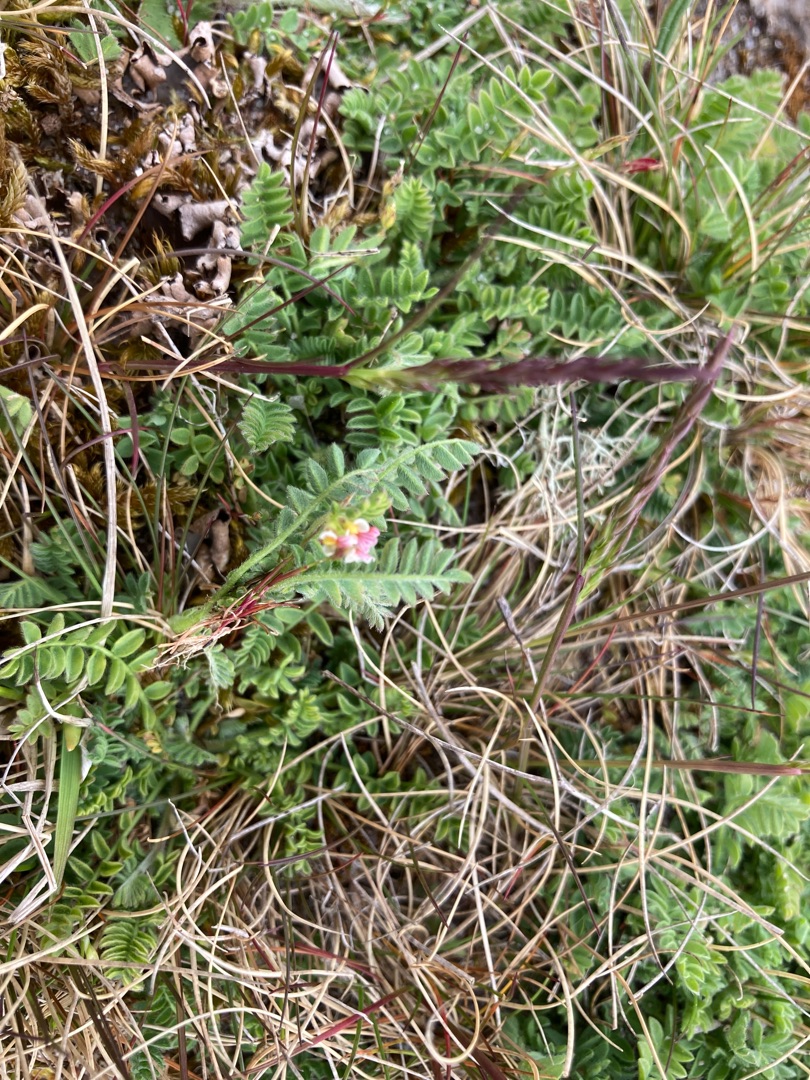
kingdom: Plantae
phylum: Tracheophyta
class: Magnoliopsida
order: Fabales
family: Fabaceae
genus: Ornithopus
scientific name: Ornithopus perpusillus
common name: Liden fugleklo
